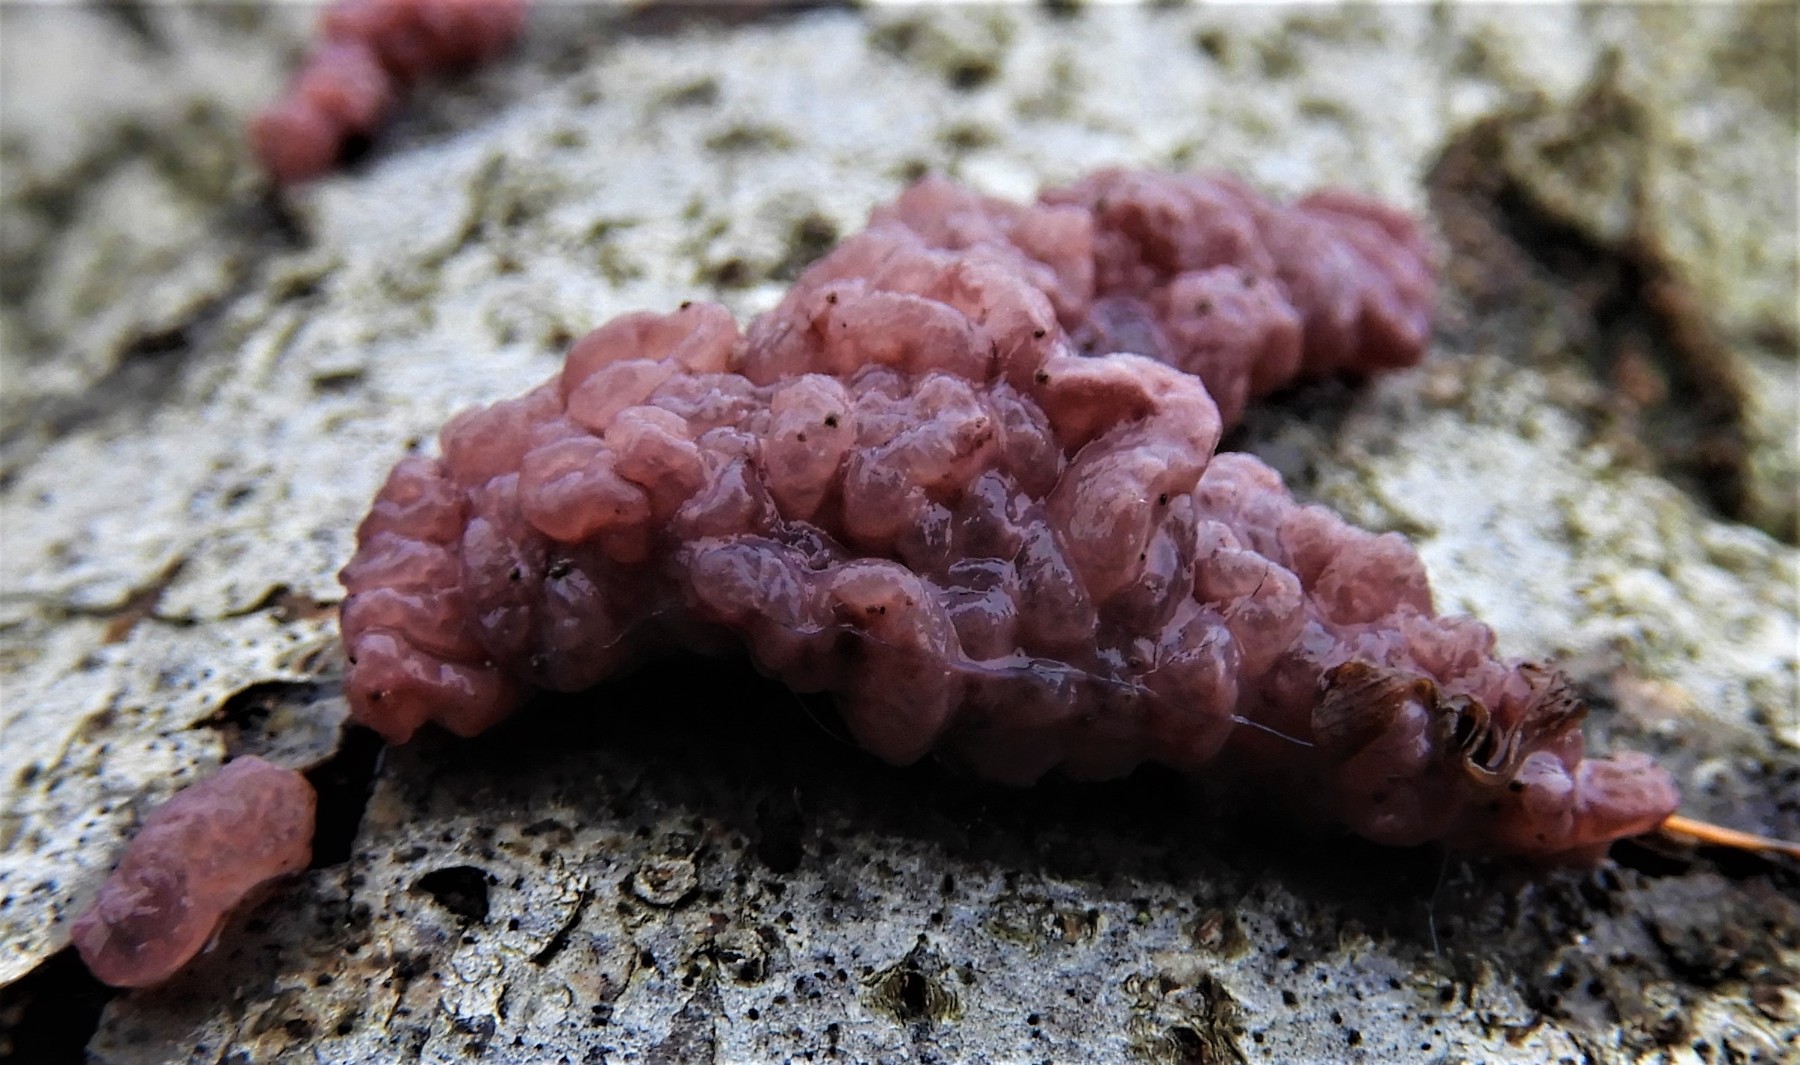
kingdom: Fungi
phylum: Ascomycota
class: Leotiomycetes
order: Helotiales
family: Helotiaceae
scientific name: Helotiaceae
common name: stilkskivefamilien
